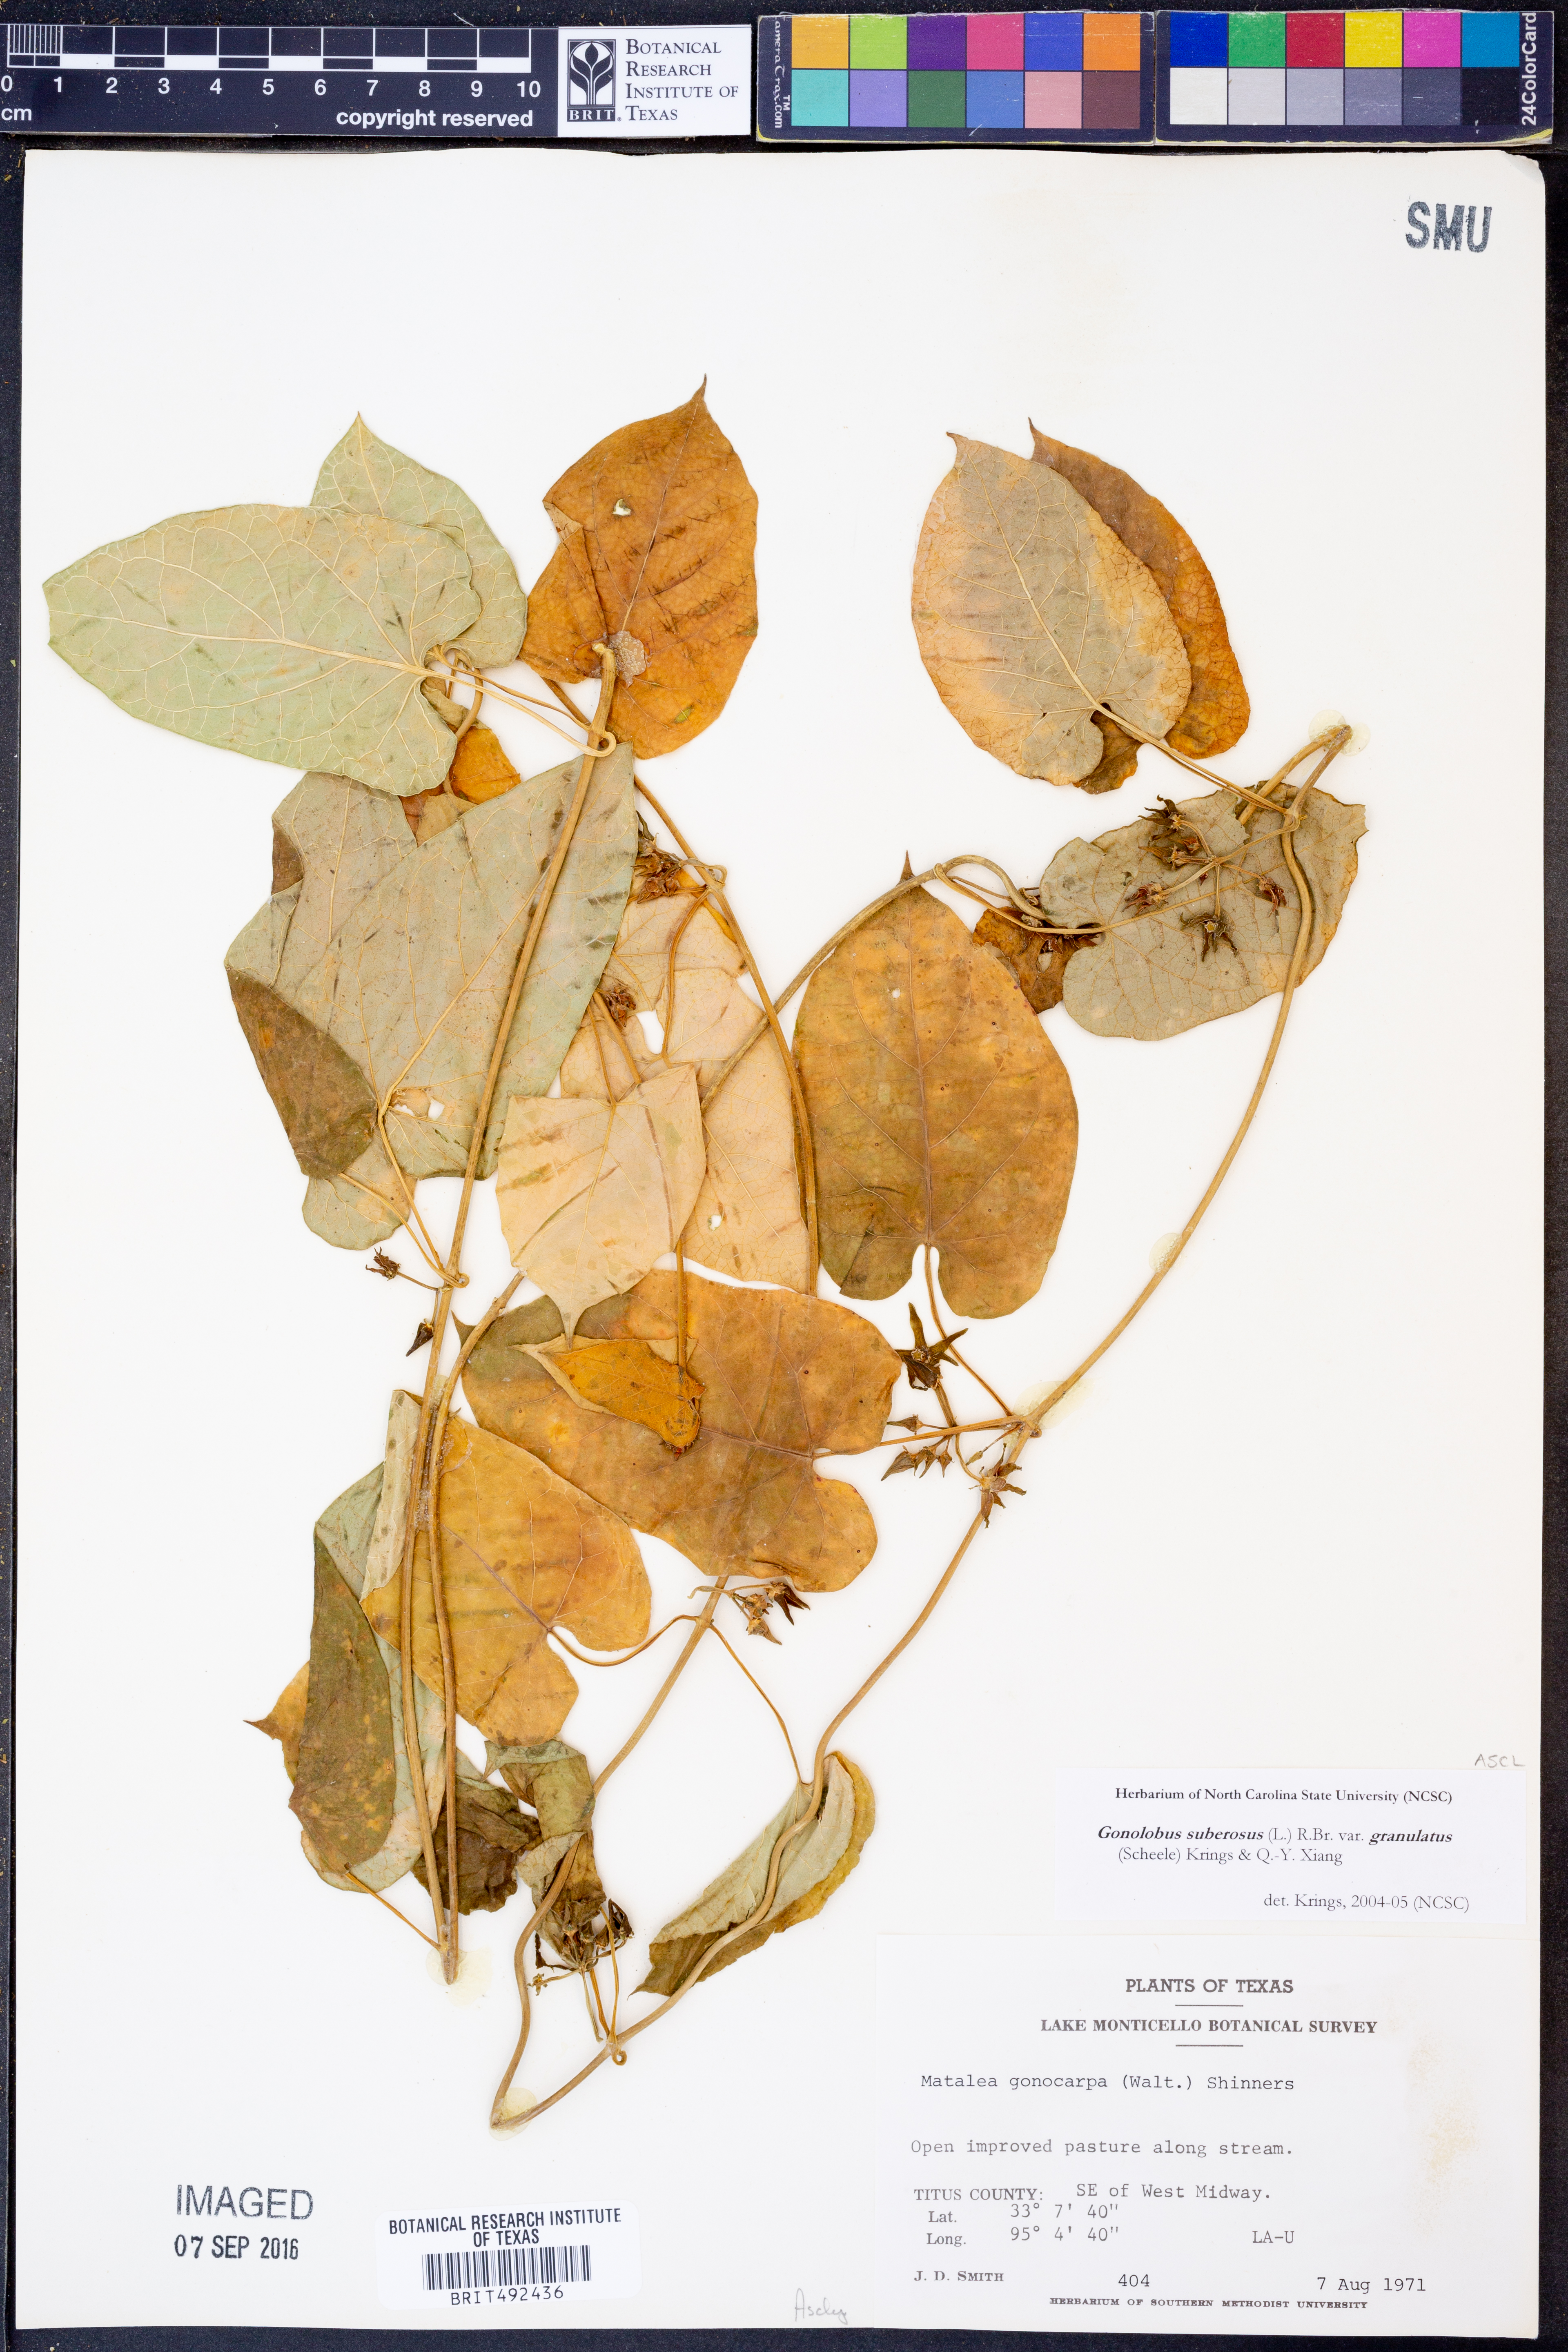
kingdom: Plantae
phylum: Tracheophyta
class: Magnoliopsida
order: Gentianales
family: Apocynaceae
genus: Gonolobus
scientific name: Gonolobus suberosus
